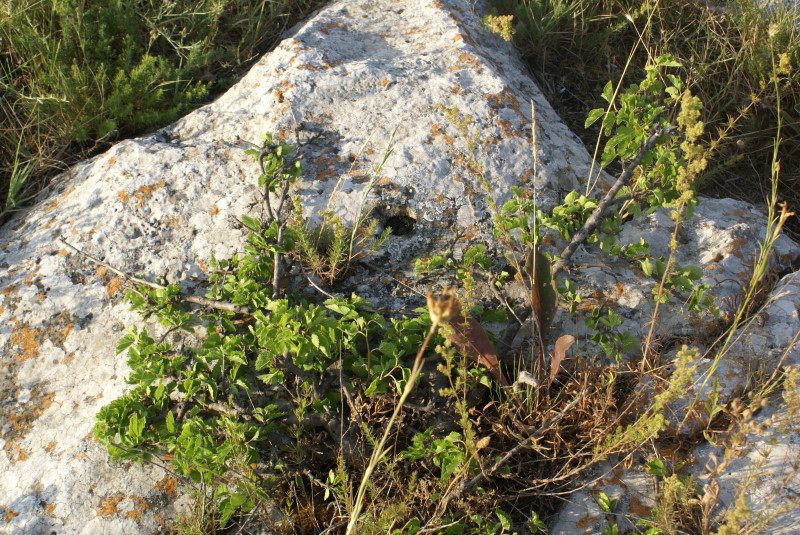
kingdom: Plantae
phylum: Tracheophyta
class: Magnoliopsida
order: Fagales
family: Betulaceae
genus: Carpinus
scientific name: Carpinus
